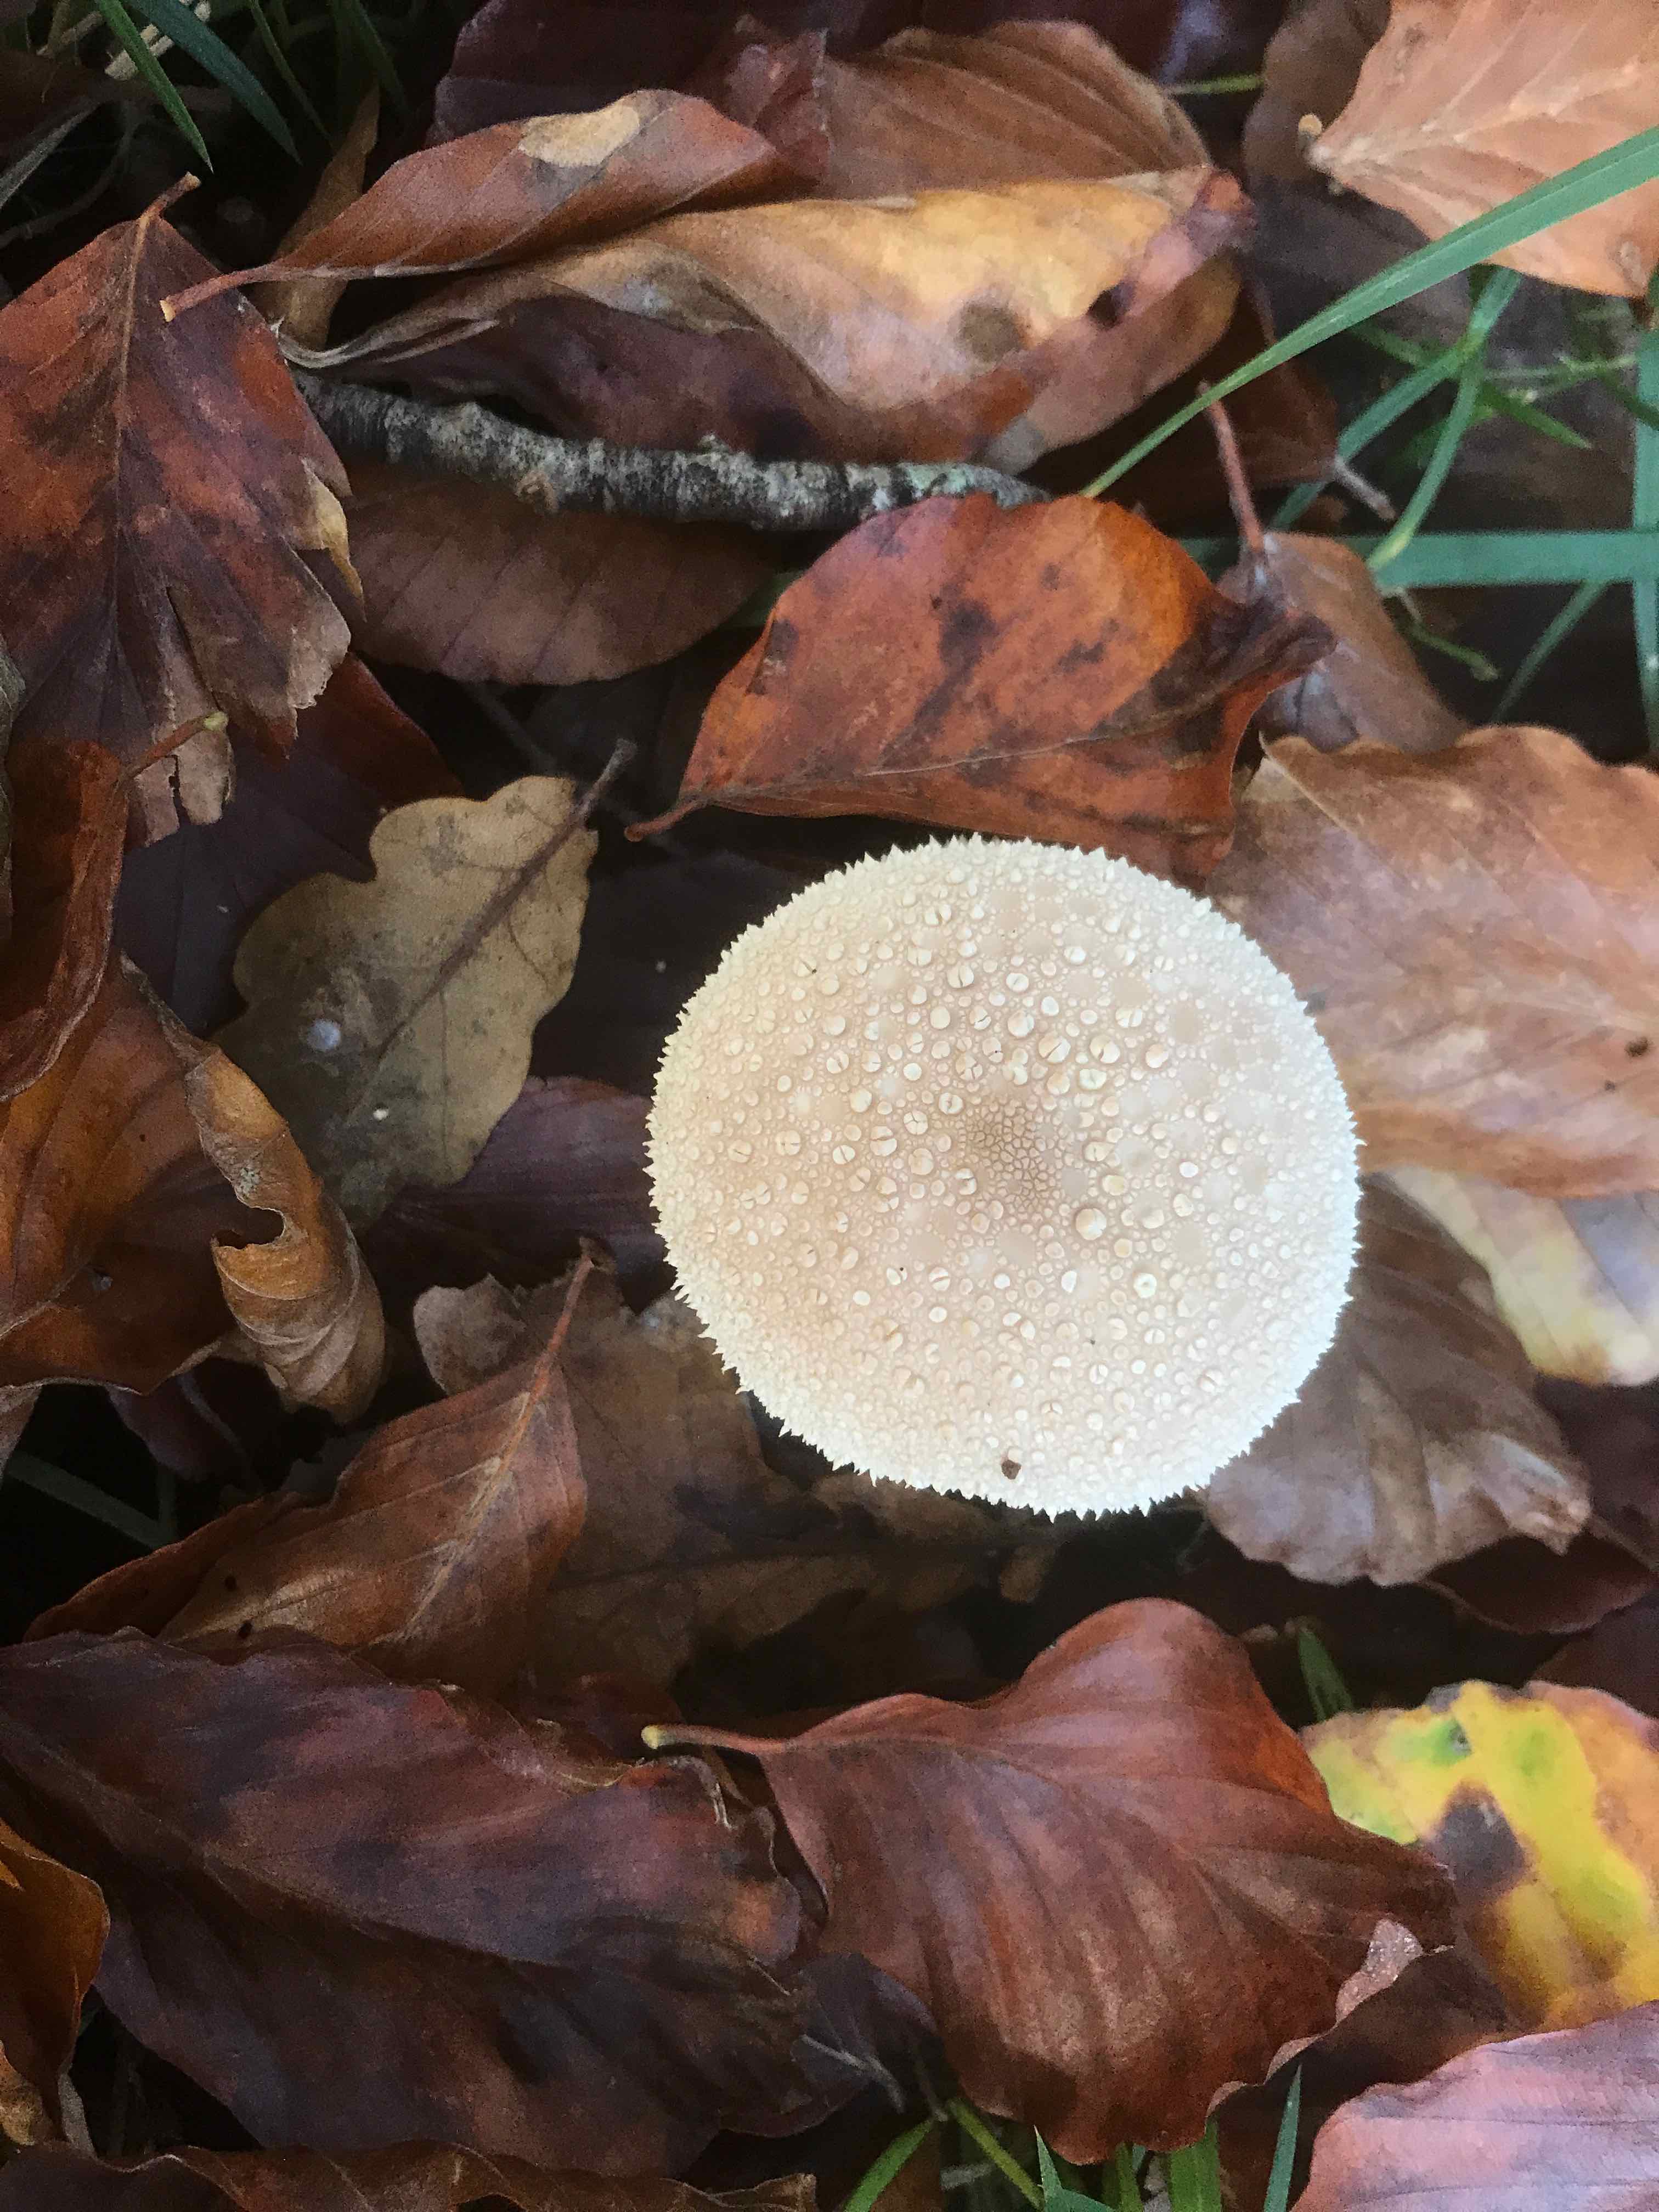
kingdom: Fungi
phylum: Basidiomycota
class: Agaricomycetes
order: Agaricales
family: Lycoperdaceae
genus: Lycoperdon
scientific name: Lycoperdon perlatum
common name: krystal-støvbold
